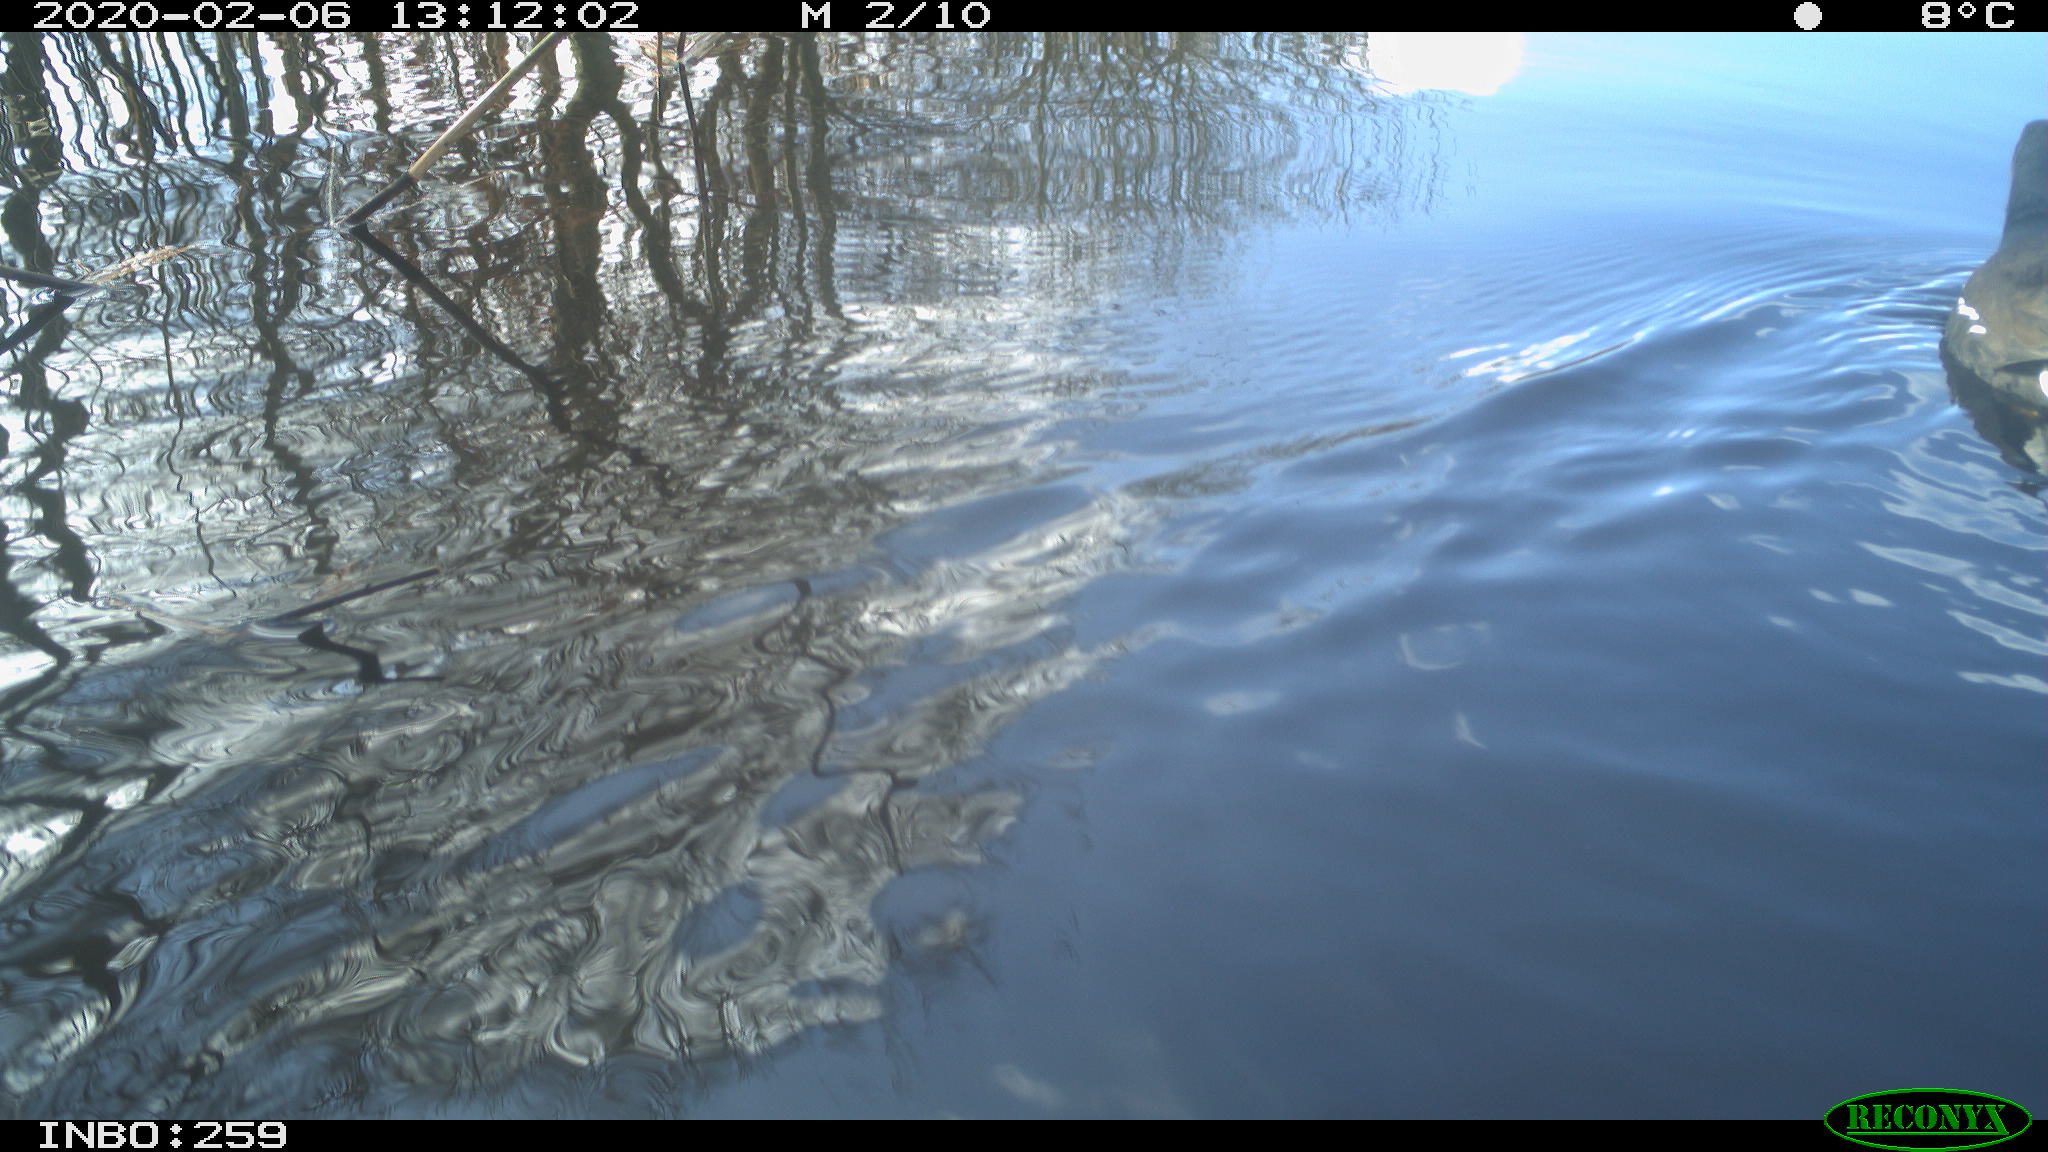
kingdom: Animalia
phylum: Chordata
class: Aves
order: Gruiformes
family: Rallidae
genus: Gallinula
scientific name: Gallinula chloropus
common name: Common moorhen
